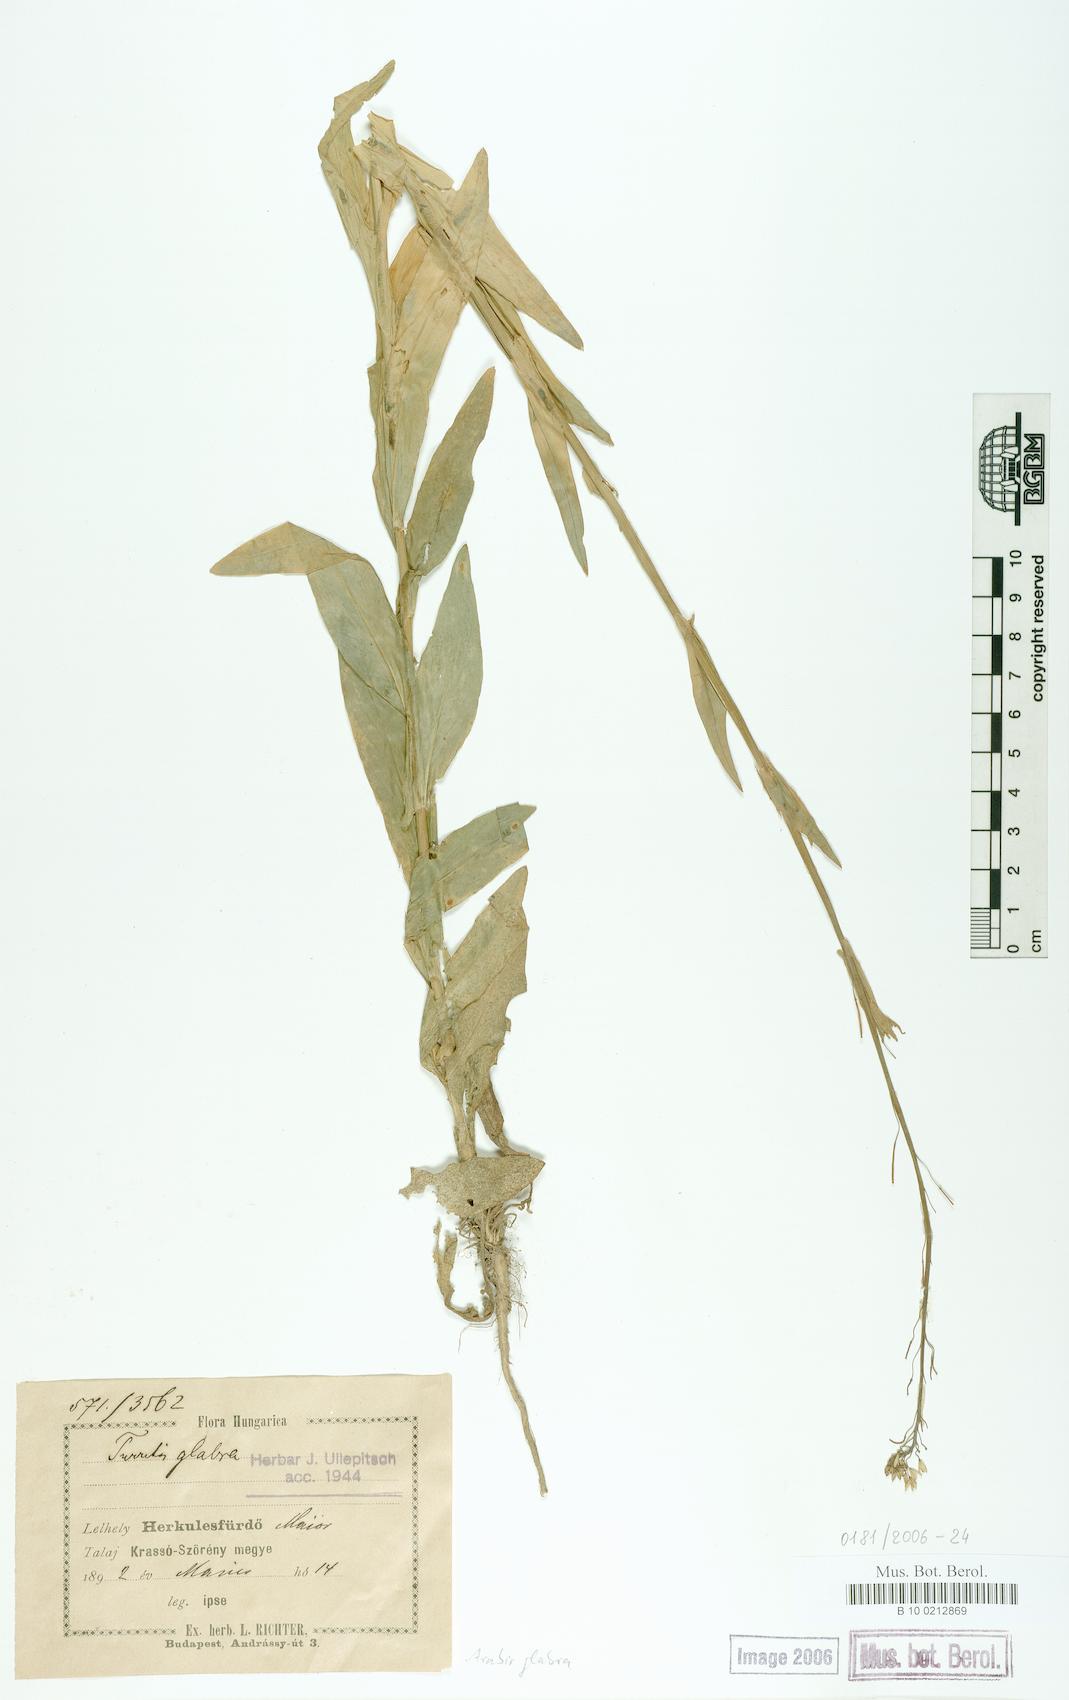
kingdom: Plantae
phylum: Tracheophyta
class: Magnoliopsida
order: Brassicales
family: Brassicaceae
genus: Turritis
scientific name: Turritis glabra
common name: Tower rockcress
